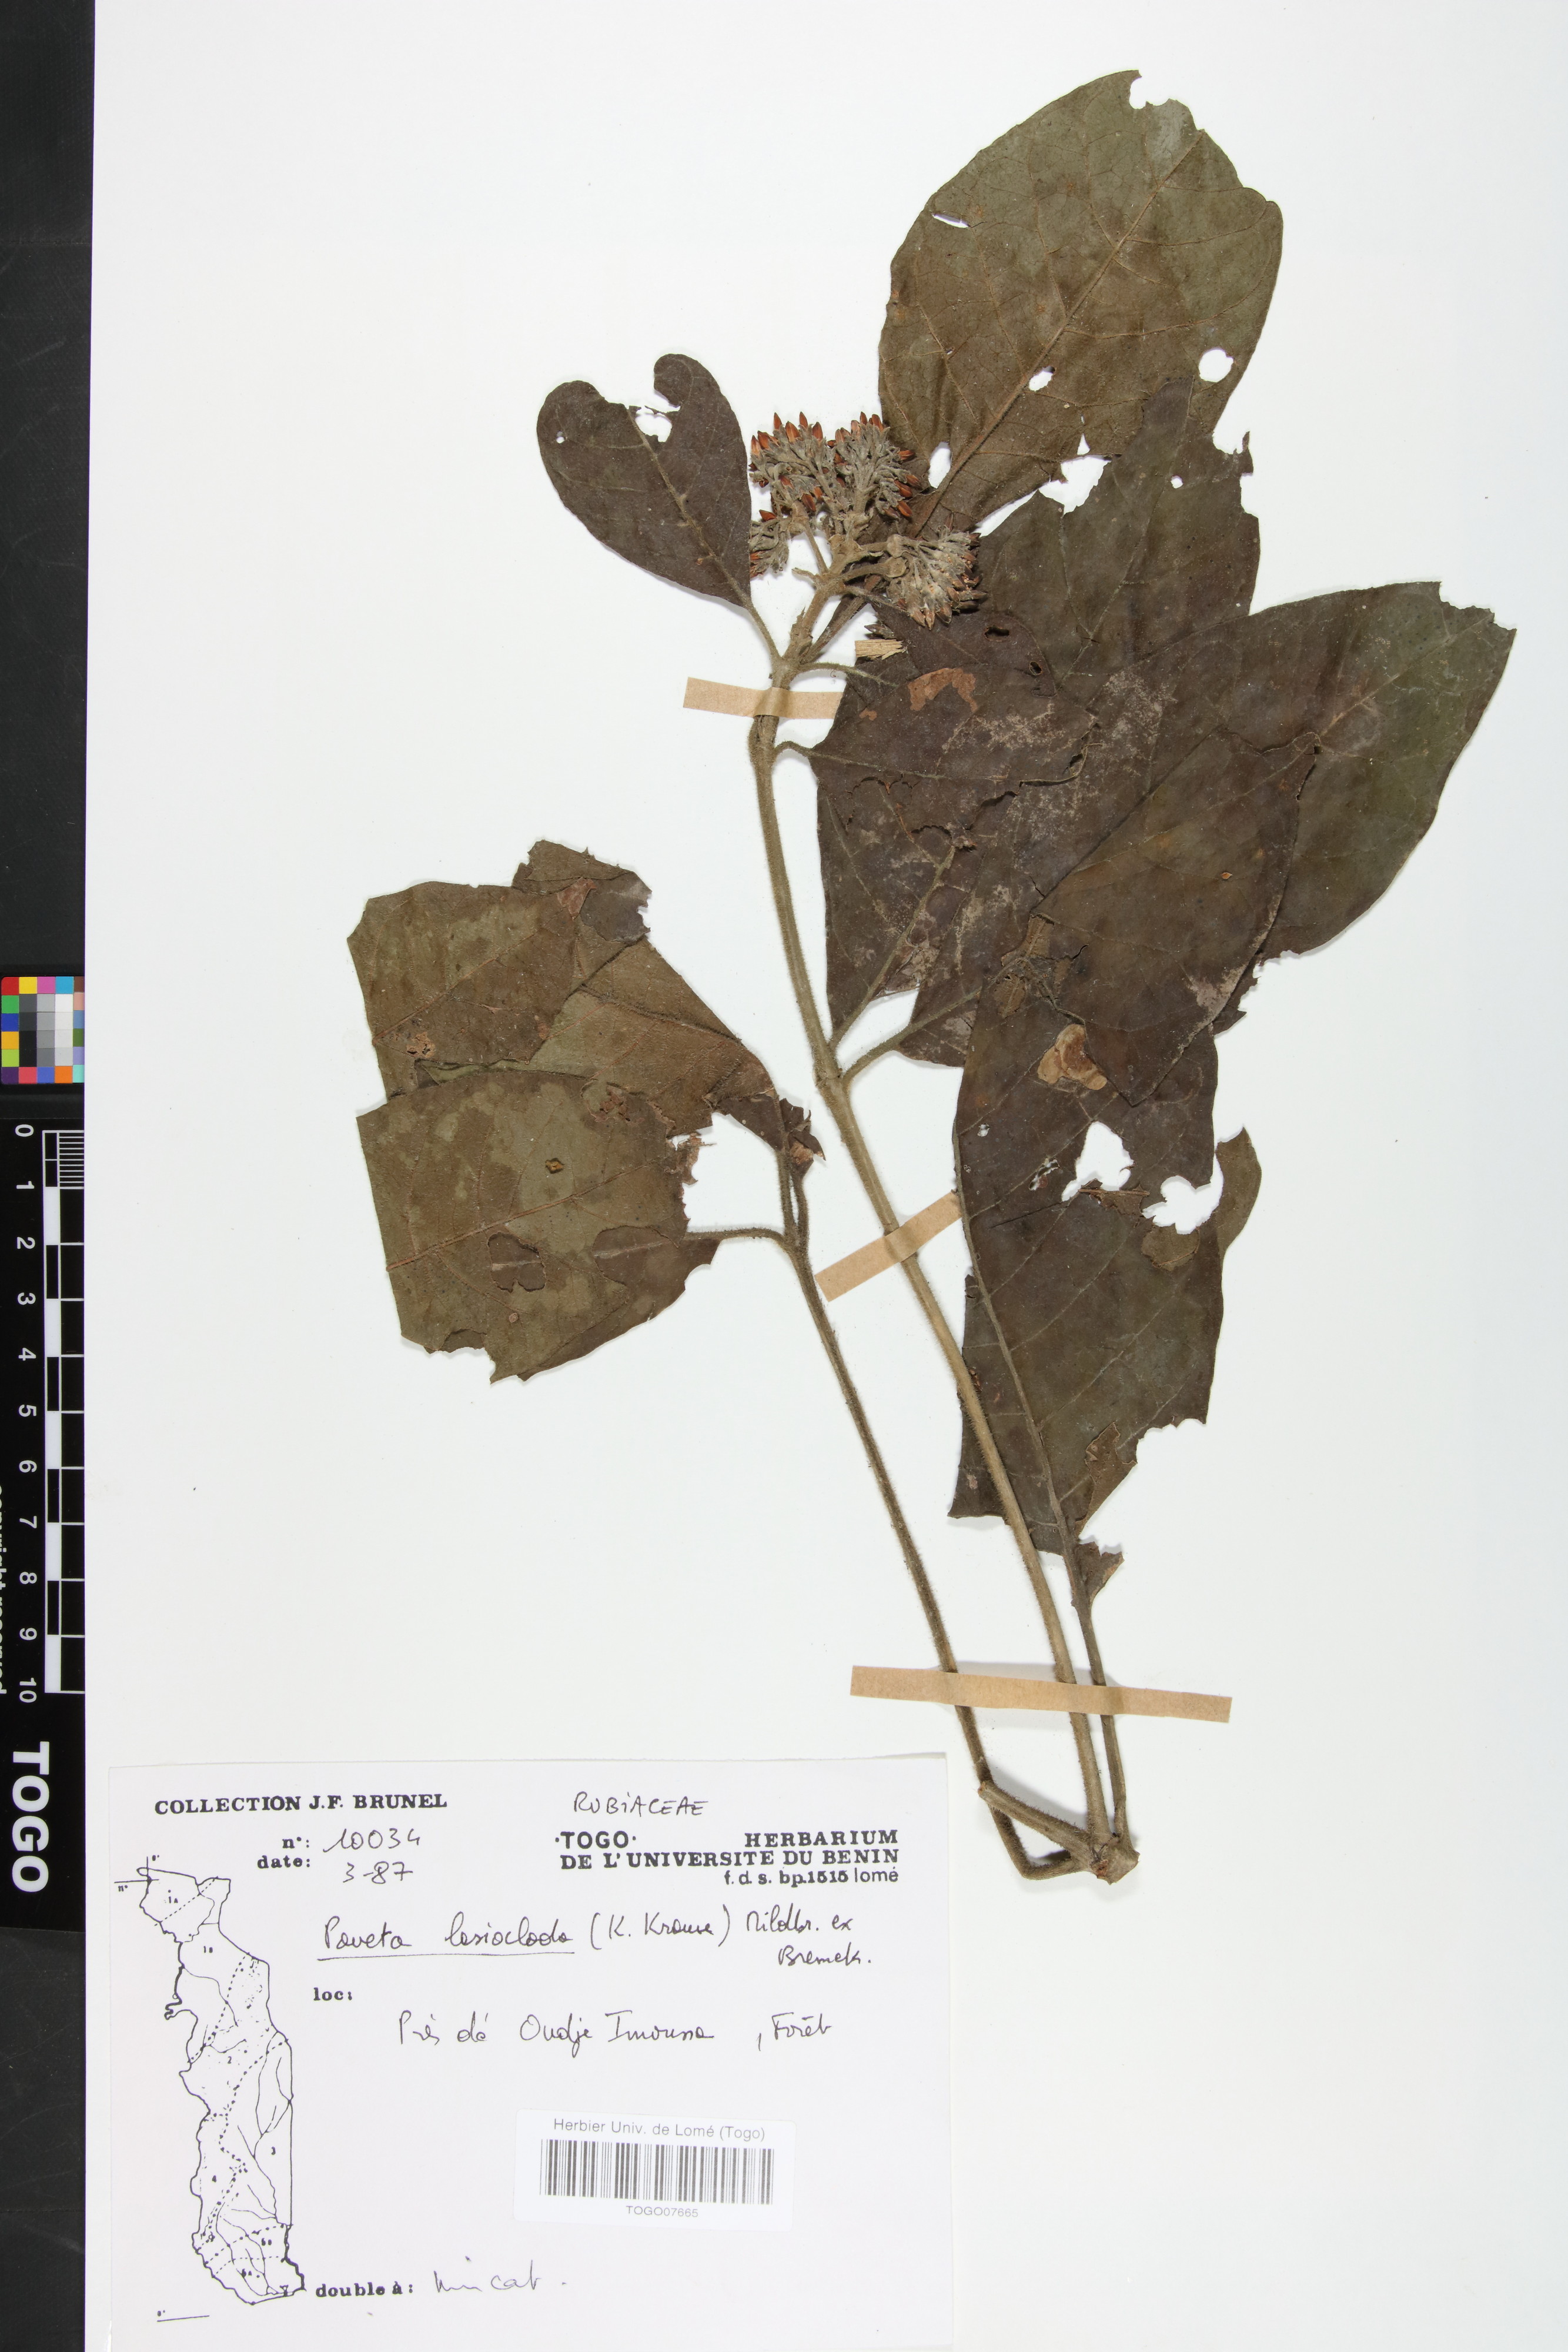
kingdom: Plantae
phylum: Tracheophyta
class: Magnoliopsida
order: Gentianales
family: Rubiaceae
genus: Pavetta
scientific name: Pavetta lasioclada
